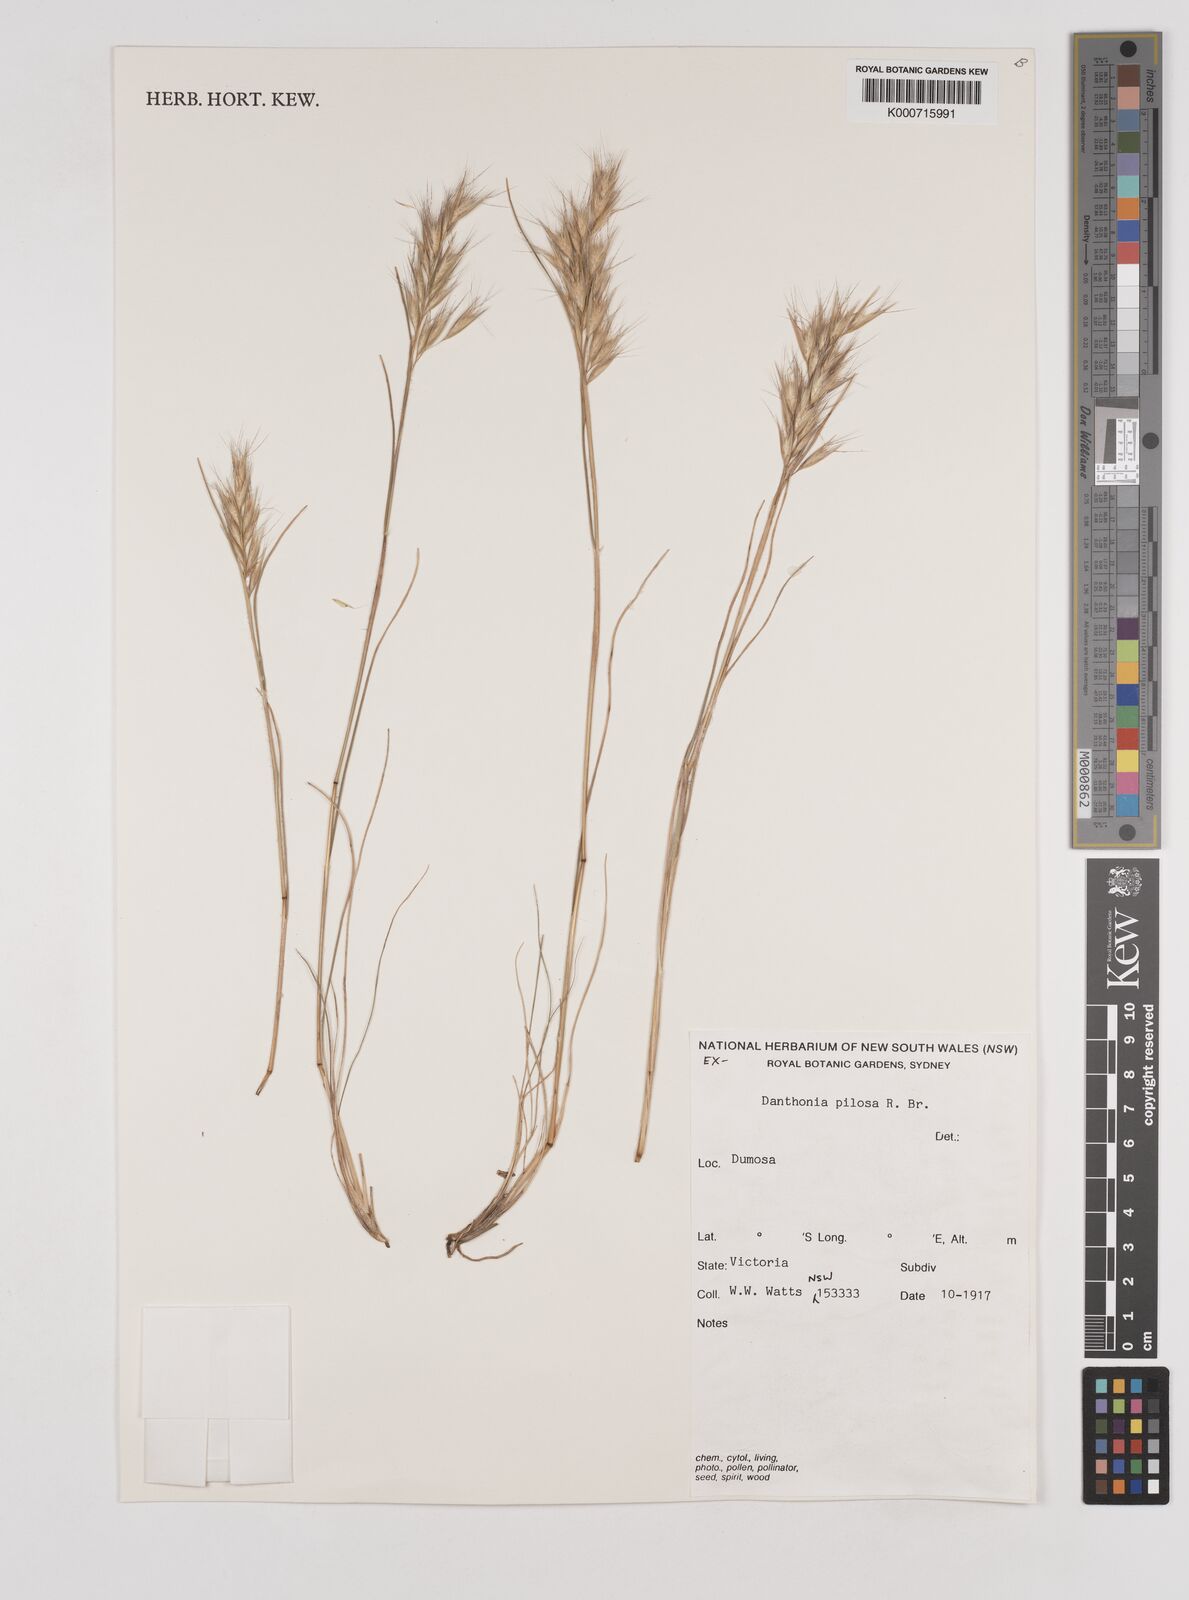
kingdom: Plantae
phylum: Tracheophyta
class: Liliopsida
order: Poales
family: Poaceae
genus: Rytidosperma
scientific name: Rytidosperma pilosum
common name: Hairy wallaby grass
